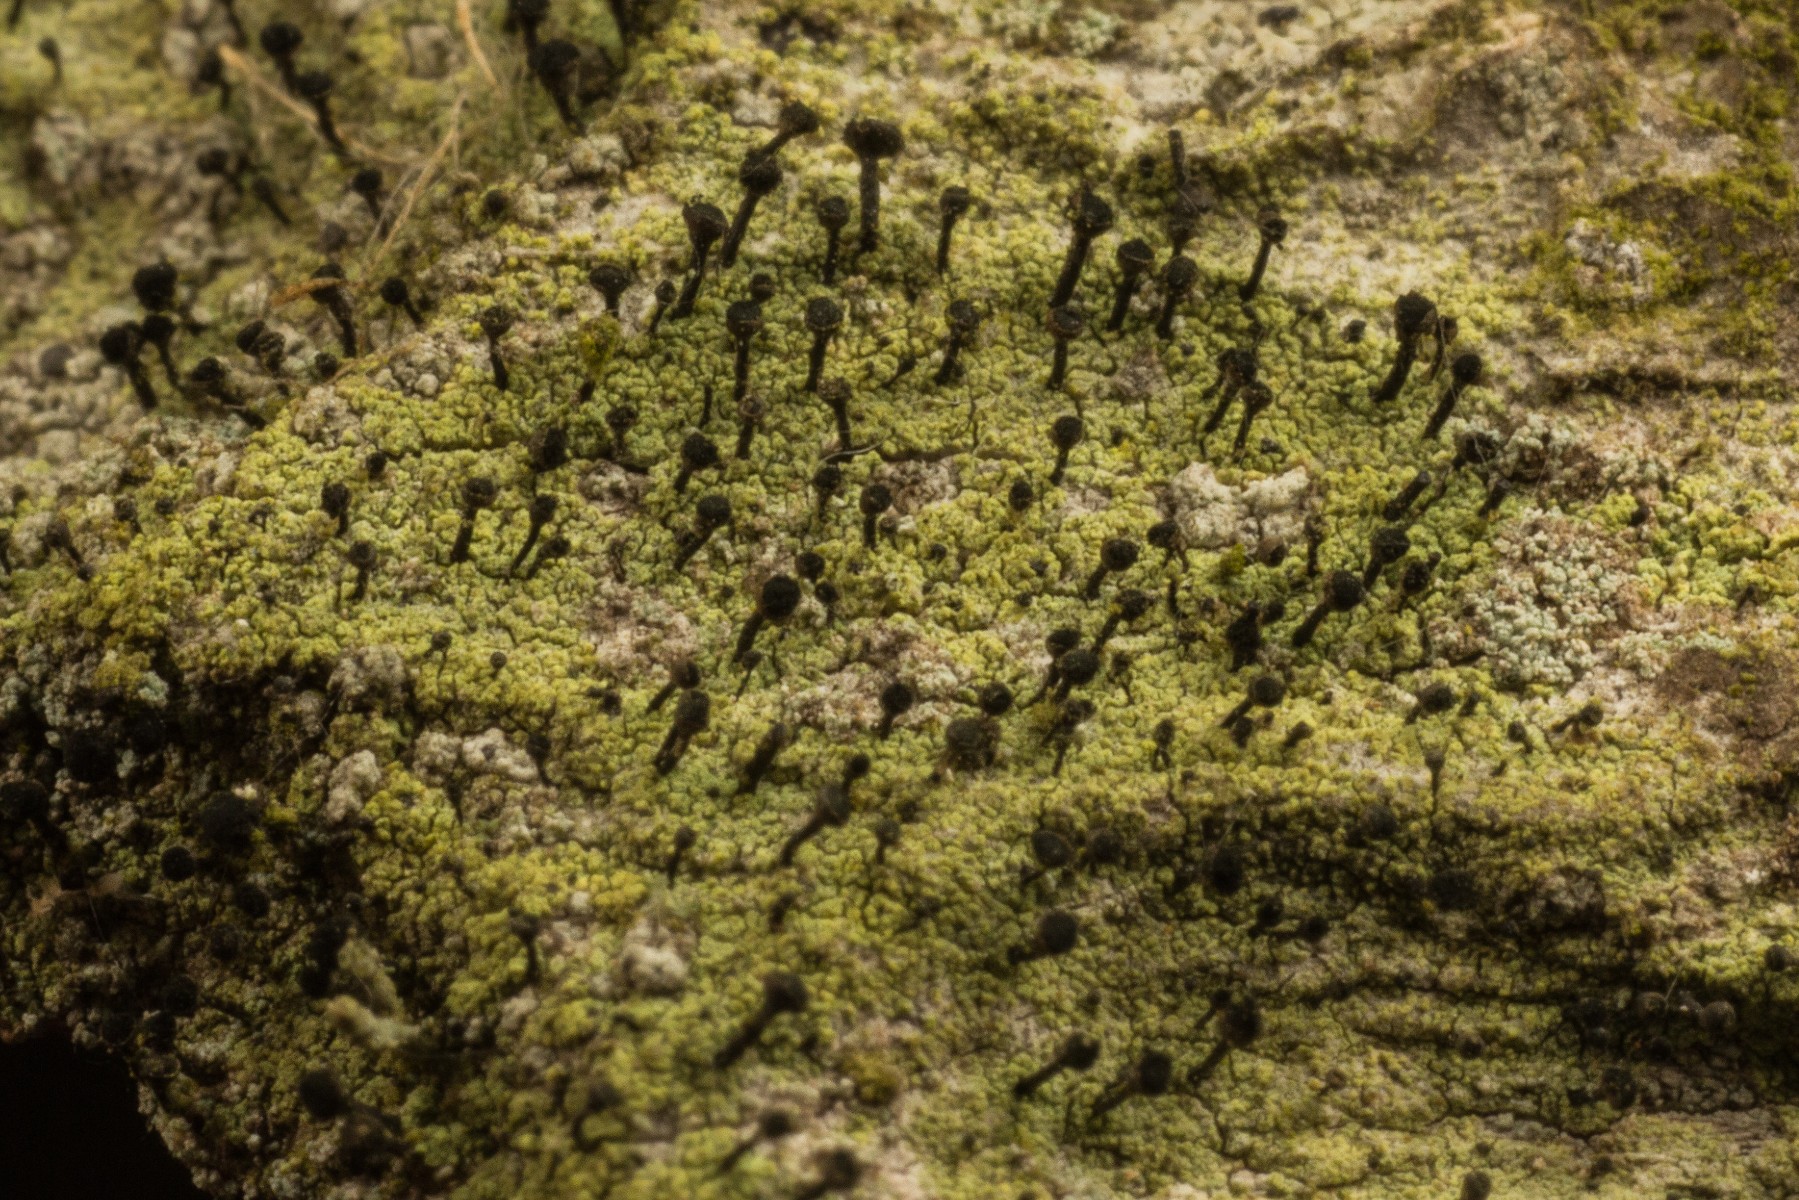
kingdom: Fungi
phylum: Ascomycota
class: Lecanoromycetes
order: Caliciales
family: Caliciaceae
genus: Calicium
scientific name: Calicium viride
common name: gulgrøn nålelav
